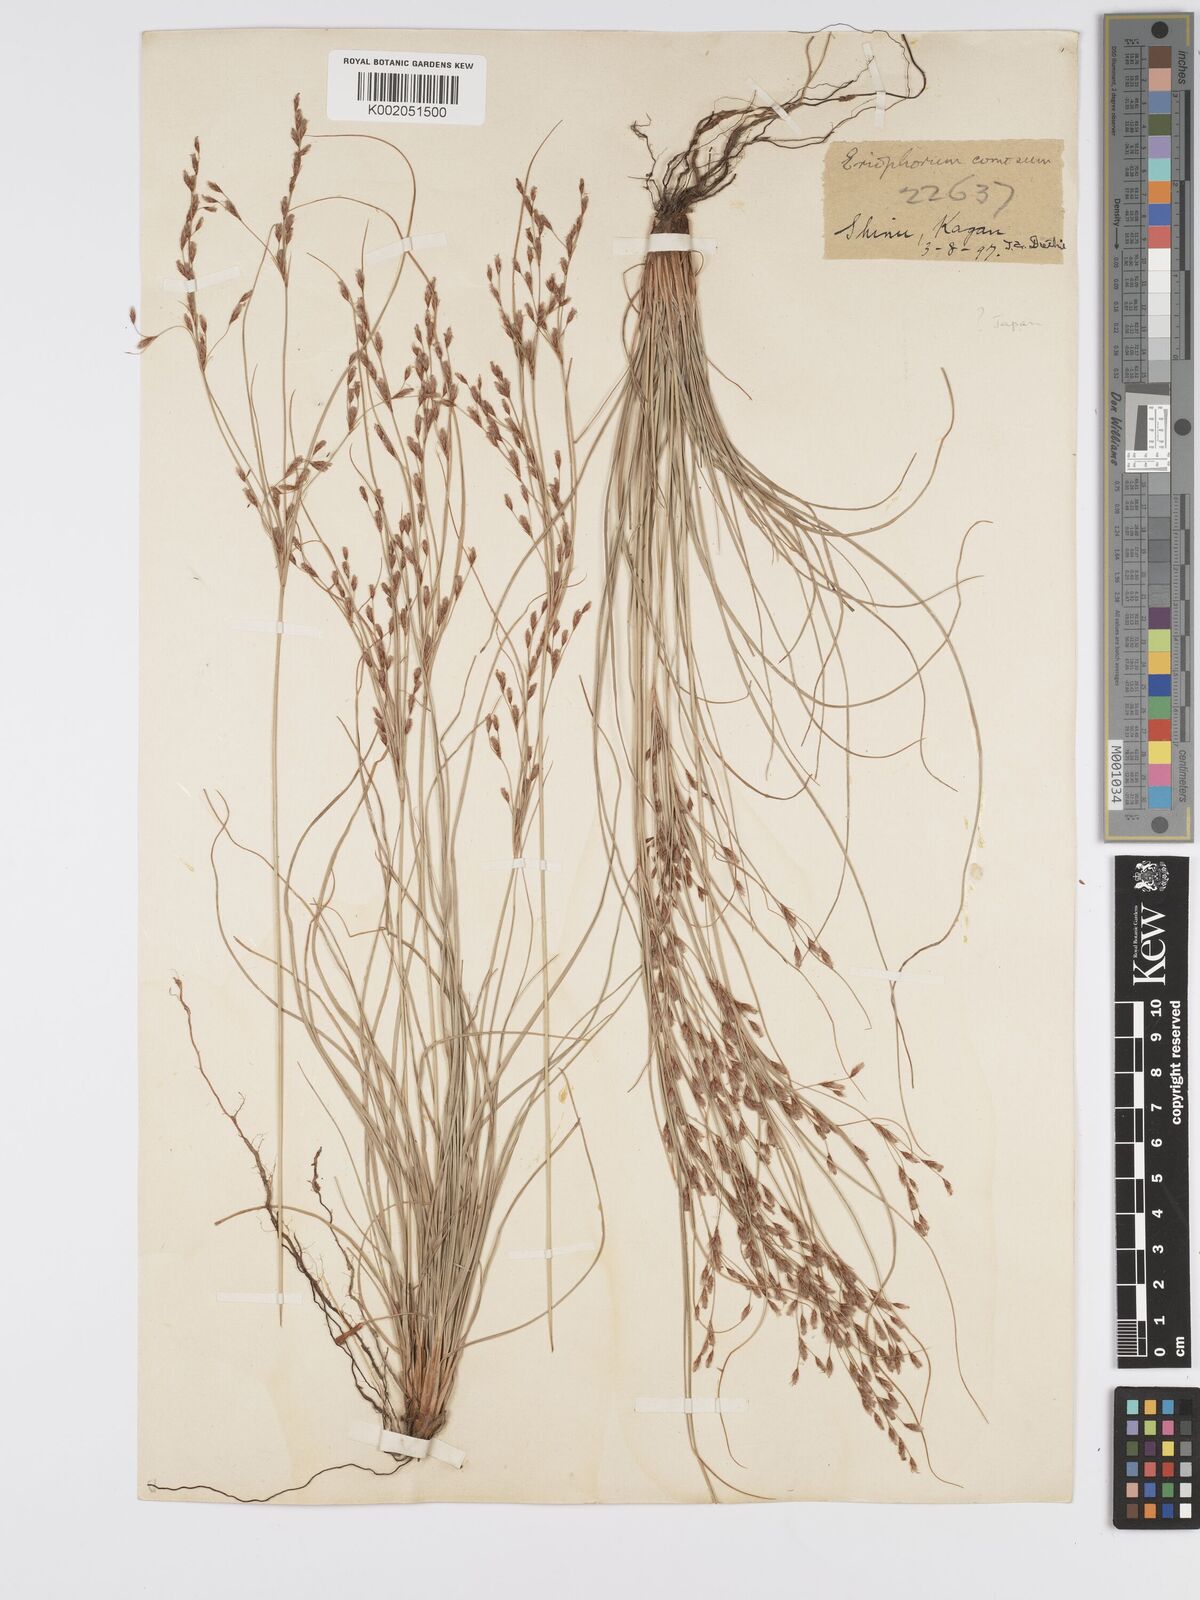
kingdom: Plantae
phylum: Tracheophyta
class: Liliopsida
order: Poales
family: Cyperaceae
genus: Erioscirpus
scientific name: Erioscirpus comosus
